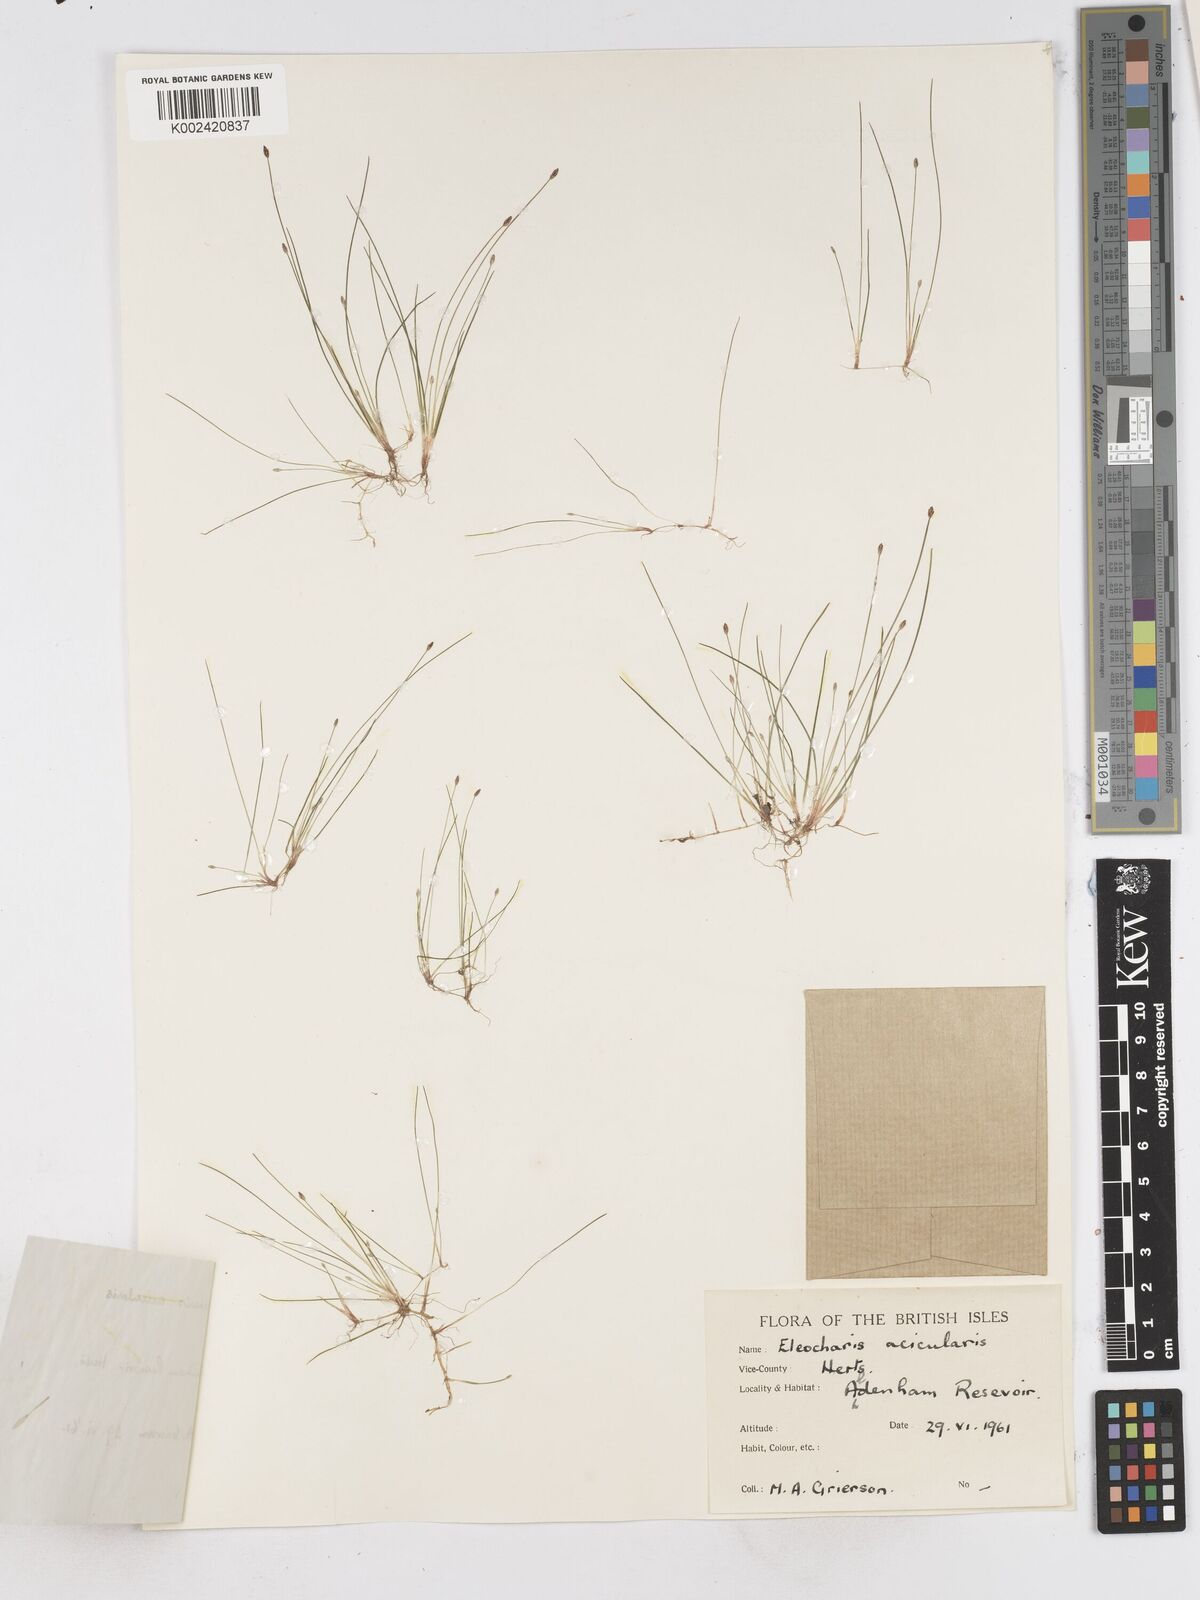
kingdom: Plantae
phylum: Tracheophyta
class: Liliopsida
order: Poales
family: Cyperaceae
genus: Eleocharis
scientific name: Eleocharis acicularis
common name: Needle spike-rush
